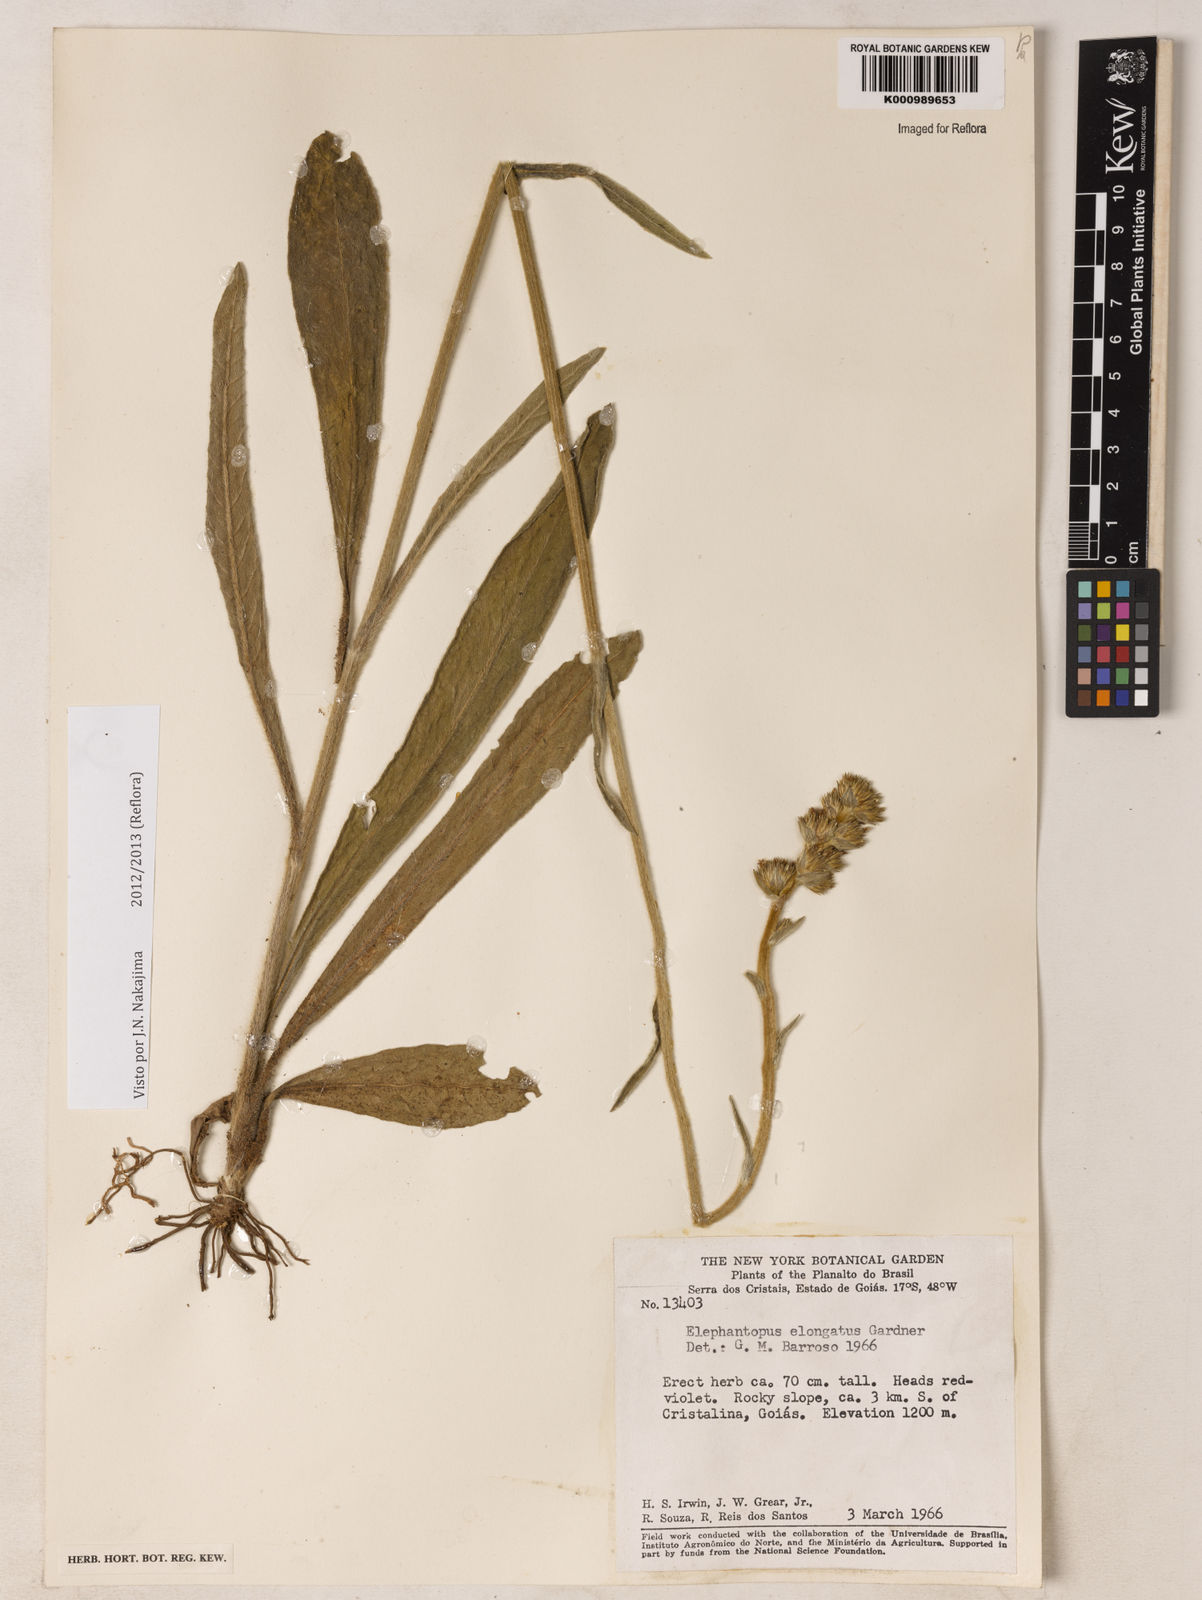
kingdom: Plantae
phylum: Tracheophyta
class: Magnoliopsida
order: Asterales
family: Asteraceae
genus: Elephantopus
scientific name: Elephantopus elongatus
